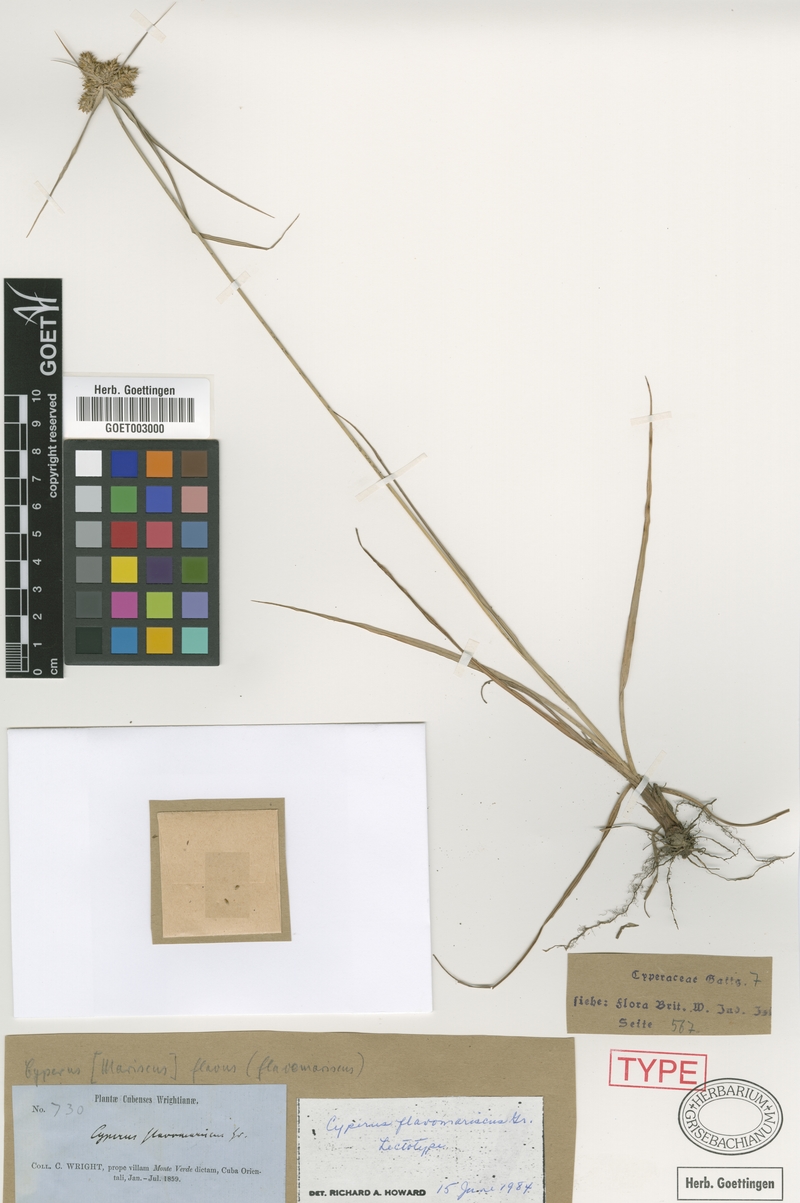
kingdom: Plantae
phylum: Tracheophyta
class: Liliopsida
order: Poales
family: Cyperaceae
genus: Cyperus
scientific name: Cyperus flavus
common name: Cayenne cyperus
